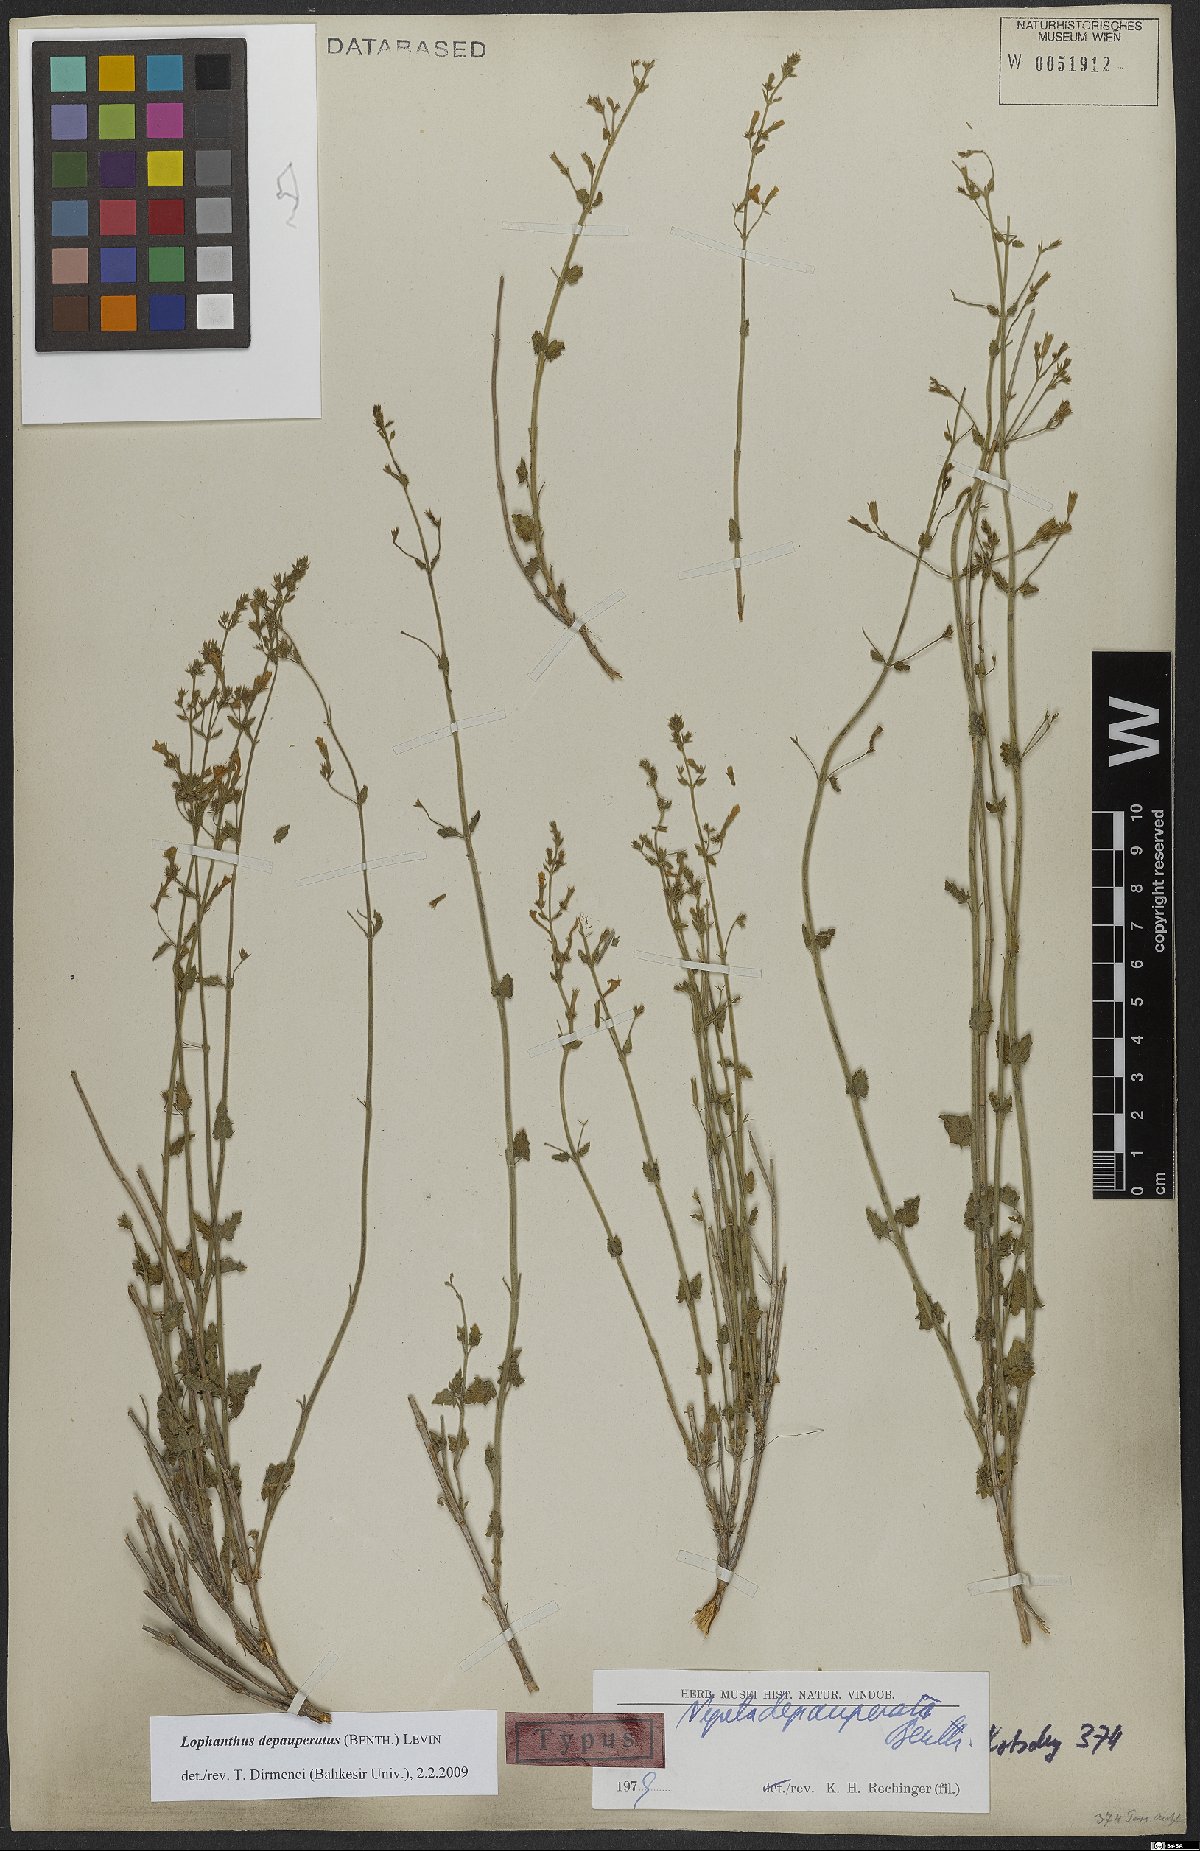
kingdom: Plantae
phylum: Tracheophyta
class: Magnoliopsida
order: Lamiales
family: Lamiaceae
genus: Nepeta
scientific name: Nepeta depauperata
